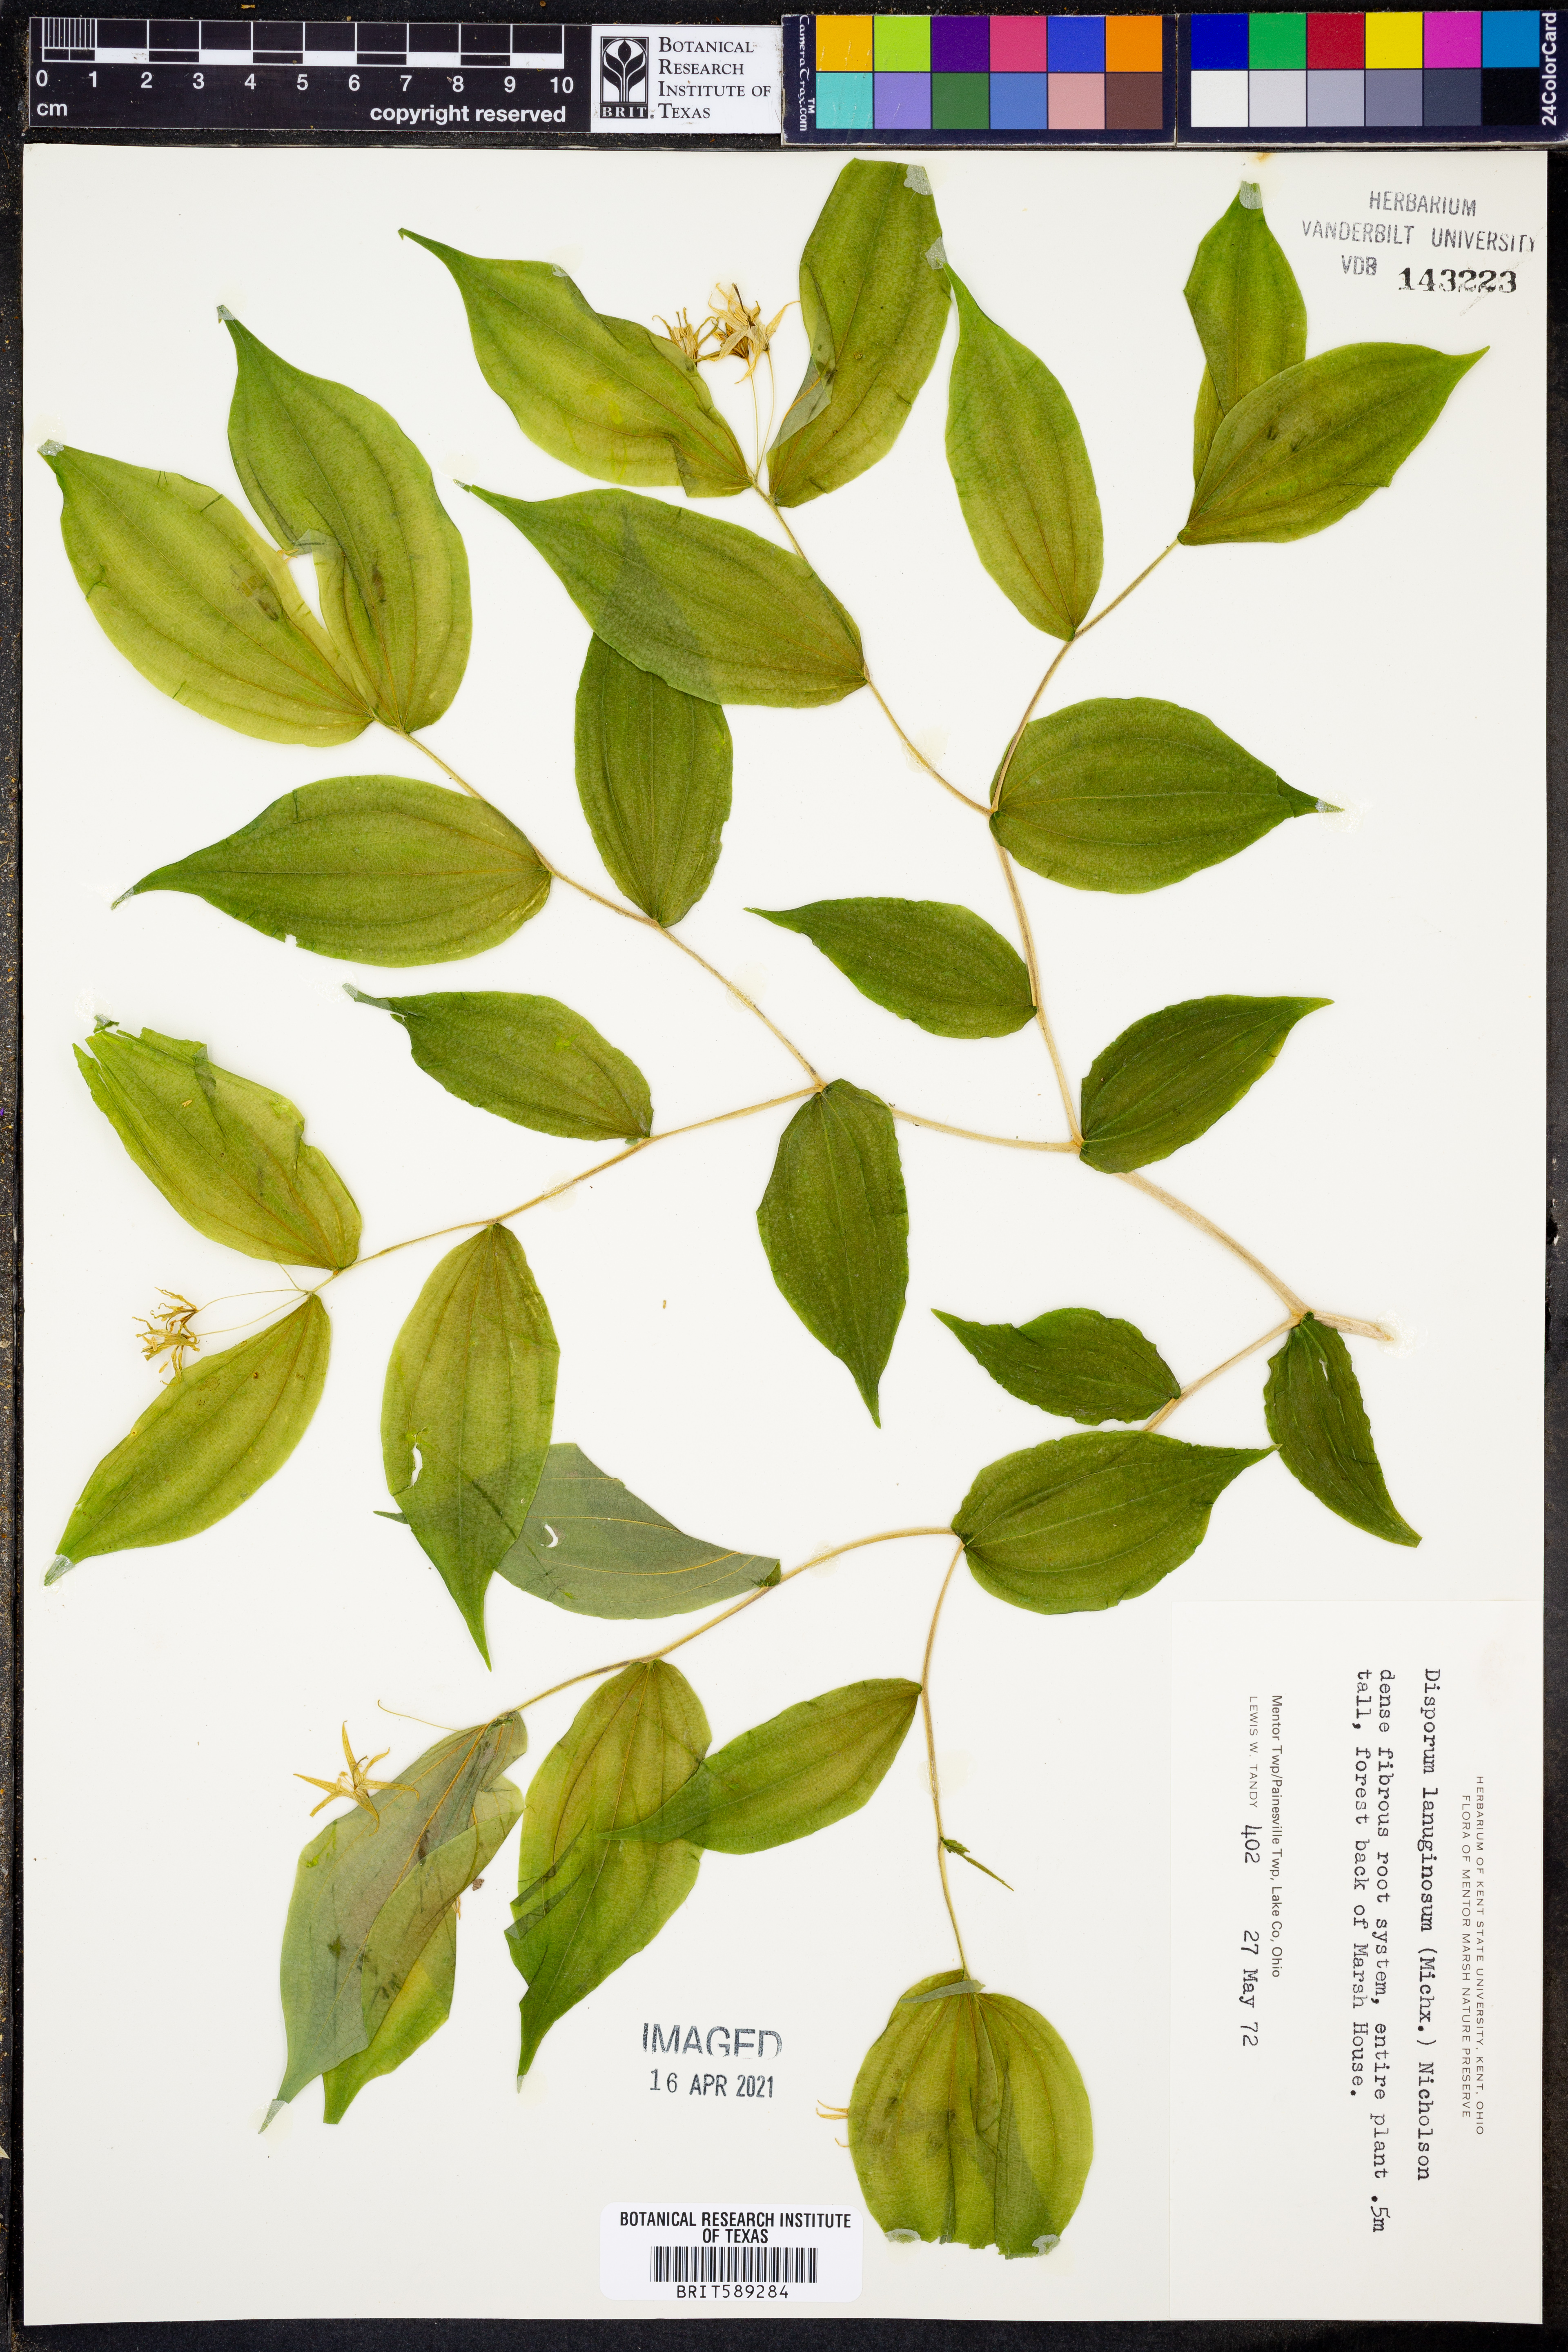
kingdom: Plantae
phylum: Tracheophyta
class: Liliopsida
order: Liliales
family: Liliaceae
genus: Prosartes
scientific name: Prosartes lanuginosa
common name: Hairy mandarin
